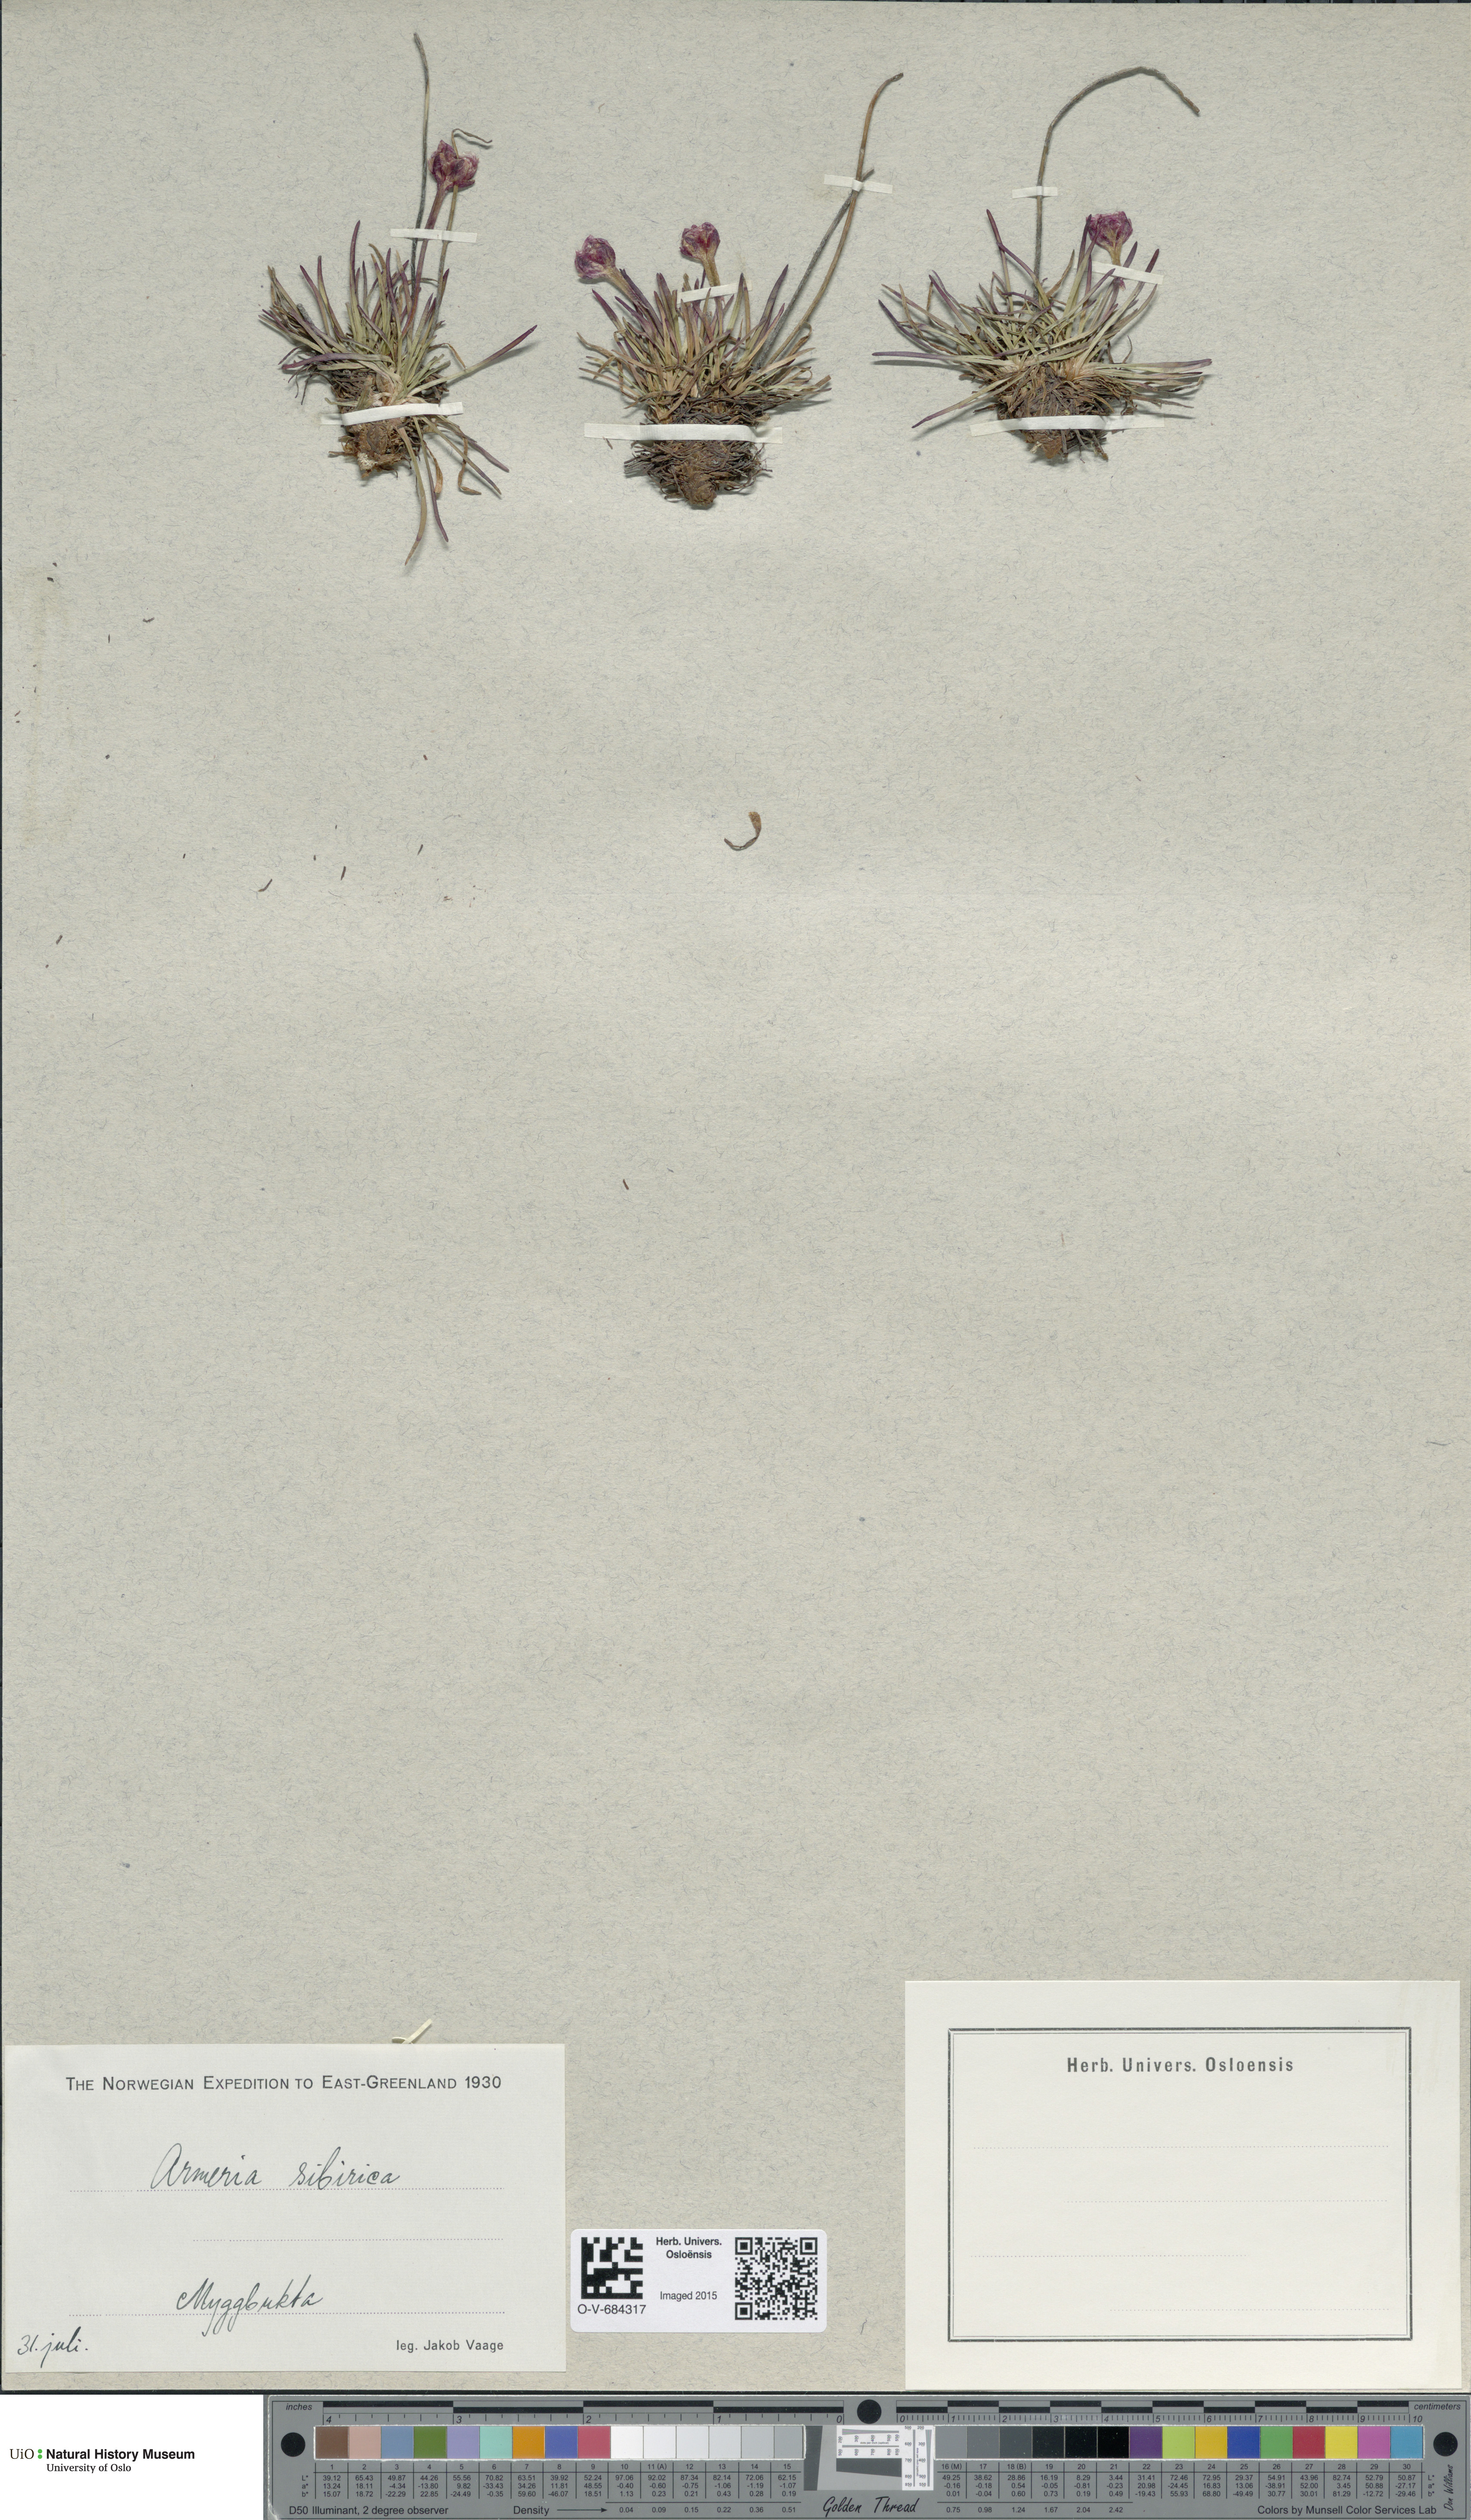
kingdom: Plantae
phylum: Tracheophyta
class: Magnoliopsida
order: Caryophyllales
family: Plumbaginaceae
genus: Armeria
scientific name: Armeria maritima
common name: Thrift
